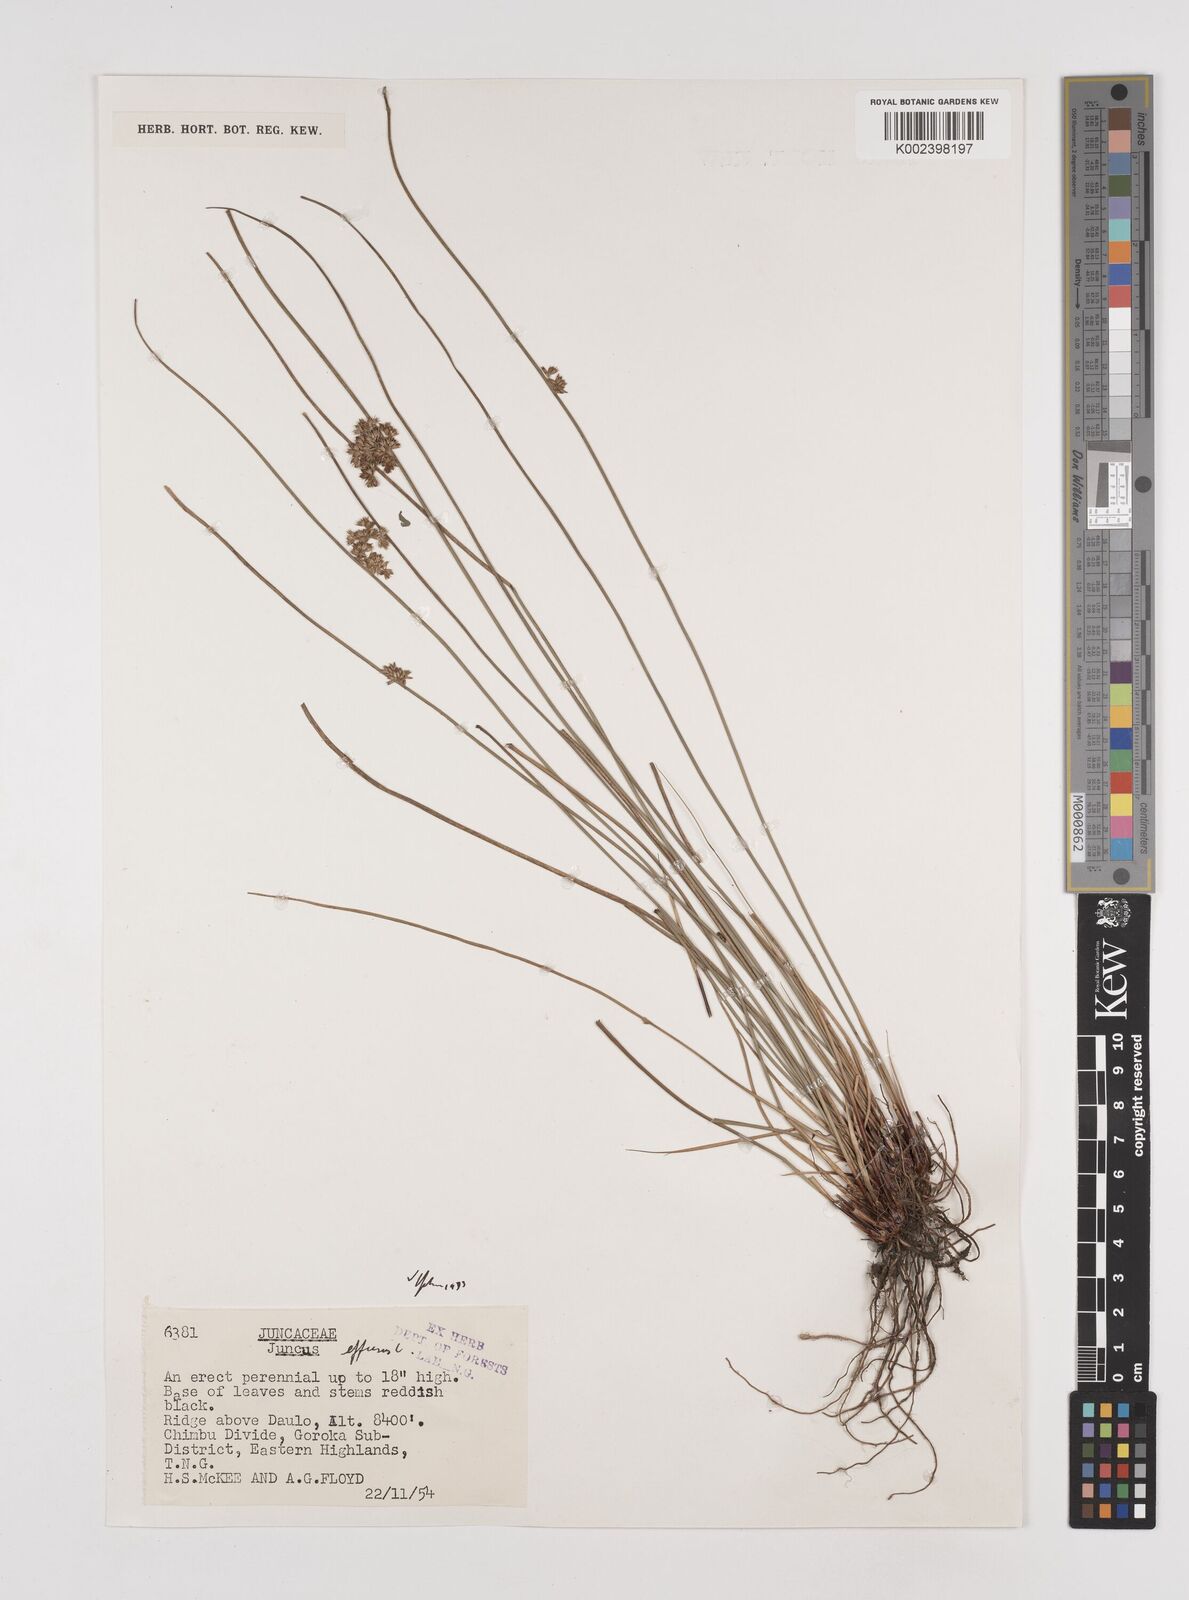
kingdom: Plantae
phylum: Tracheophyta
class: Liliopsida
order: Poales
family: Juncaceae
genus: Juncus
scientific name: Juncus decipiens
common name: Lamp rush
